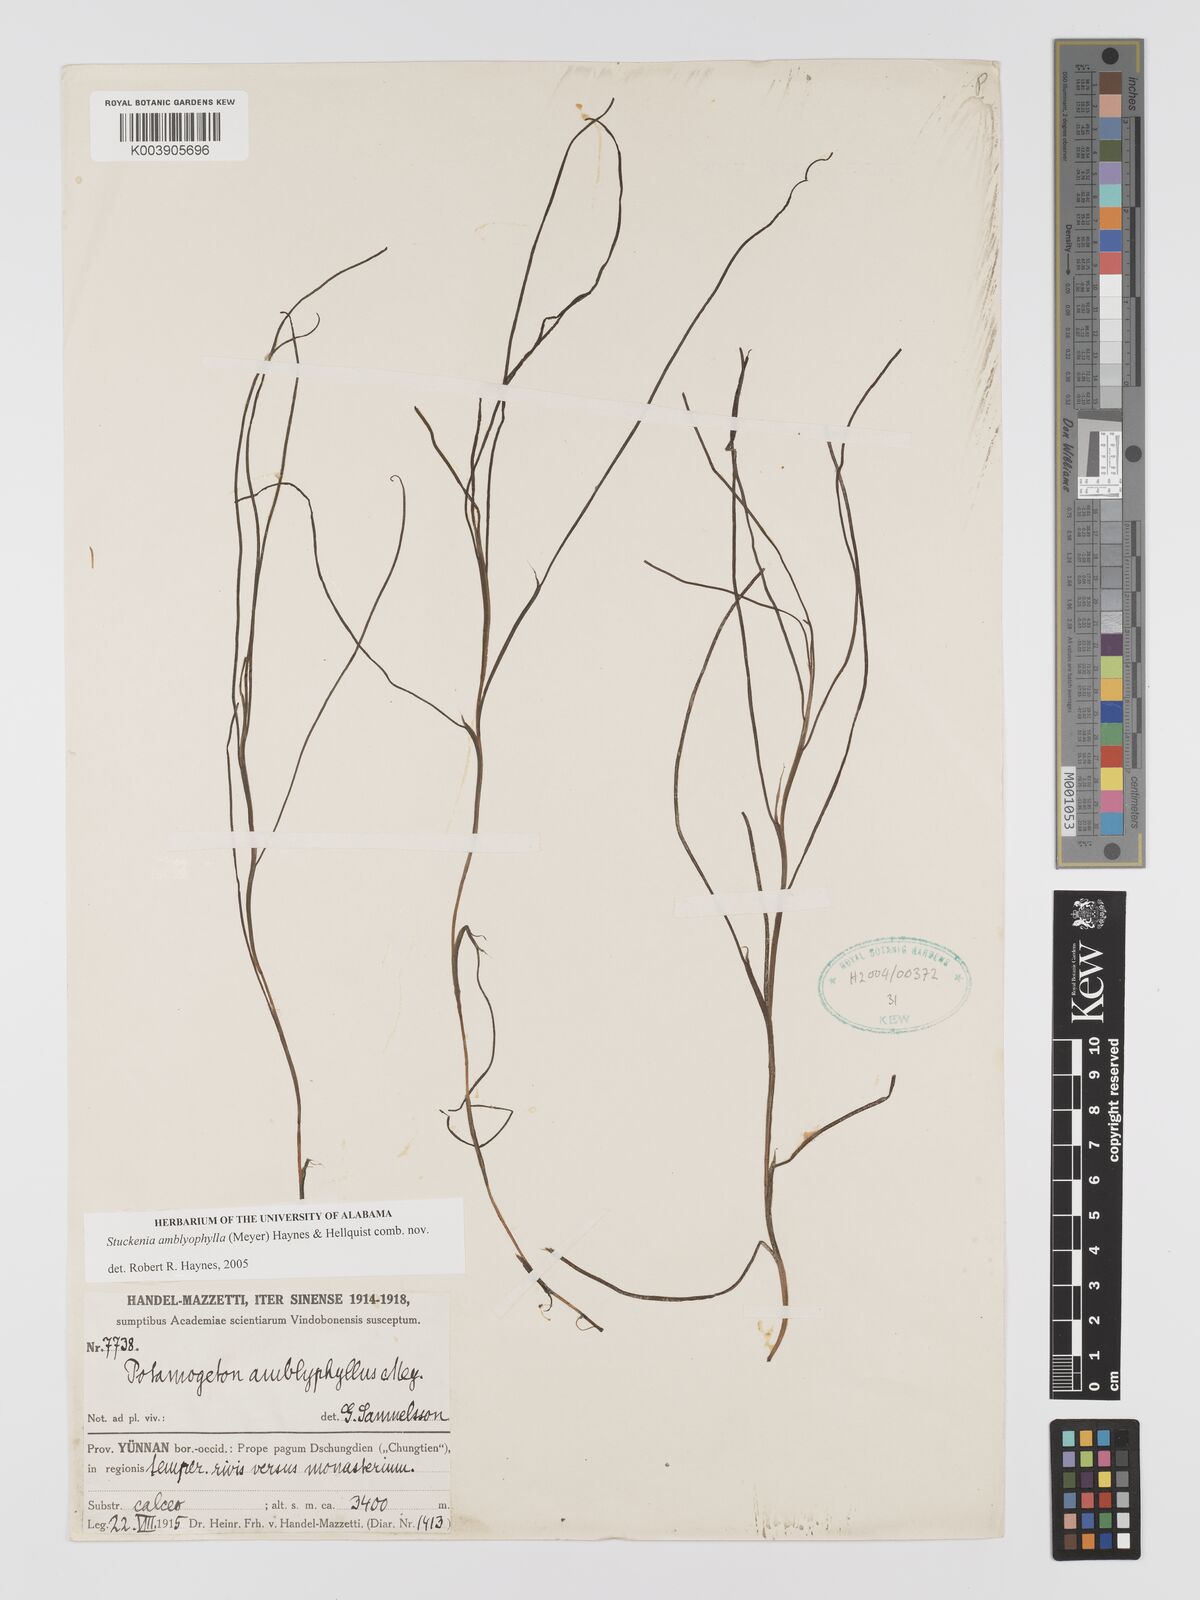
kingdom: Plantae
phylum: Tracheophyta
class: Liliopsida
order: Alismatales
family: Potamogetonaceae
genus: Stuckenia
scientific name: Stuckenia amblyophylla
